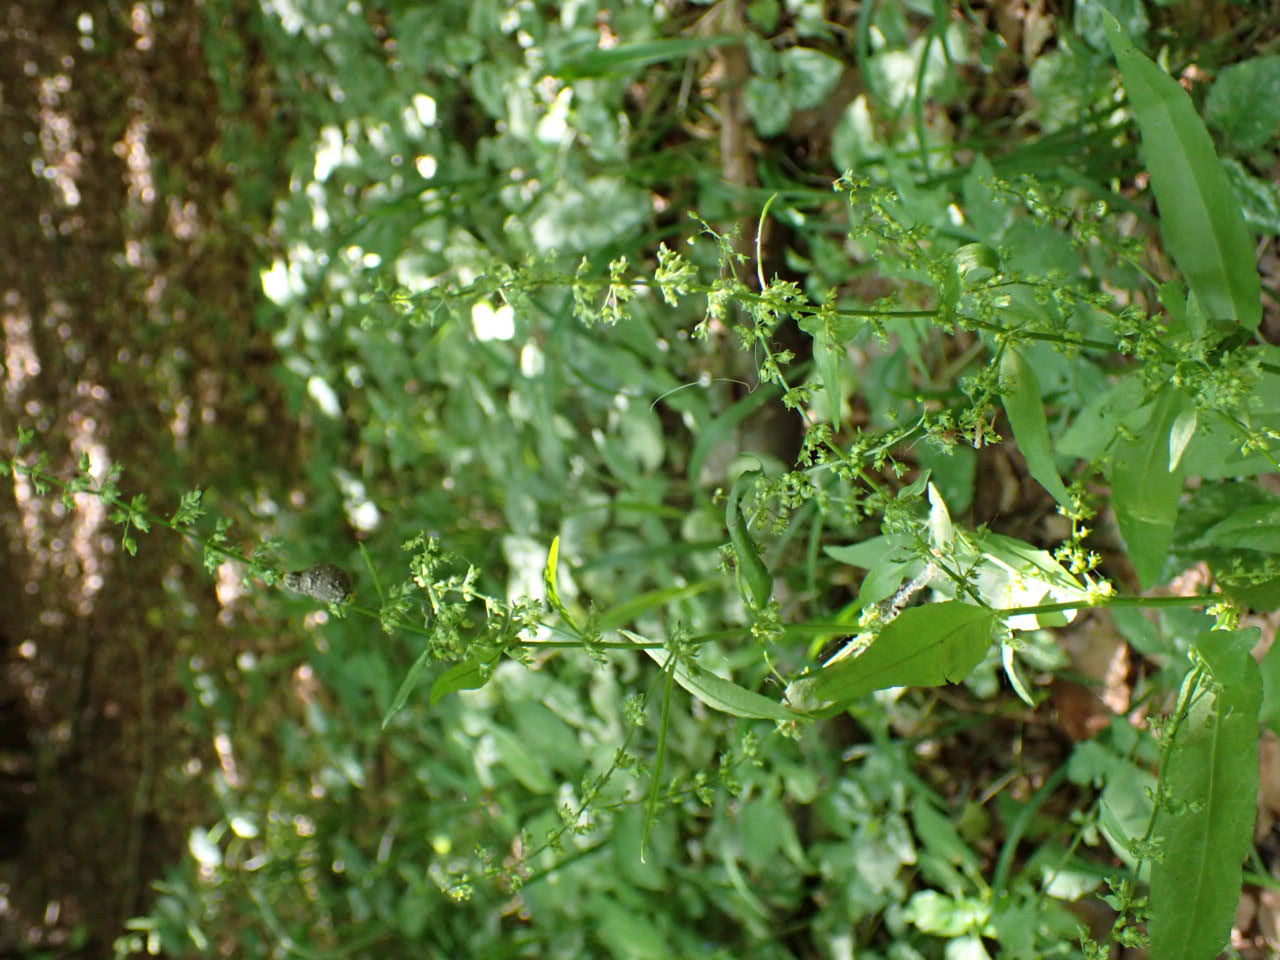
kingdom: Plantae
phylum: Tracheophyta
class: Magnoliopsida
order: Caryophyllales
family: Polygonaceae
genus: Rumex
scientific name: Rumex sanguineus
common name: Skov-skræppe
